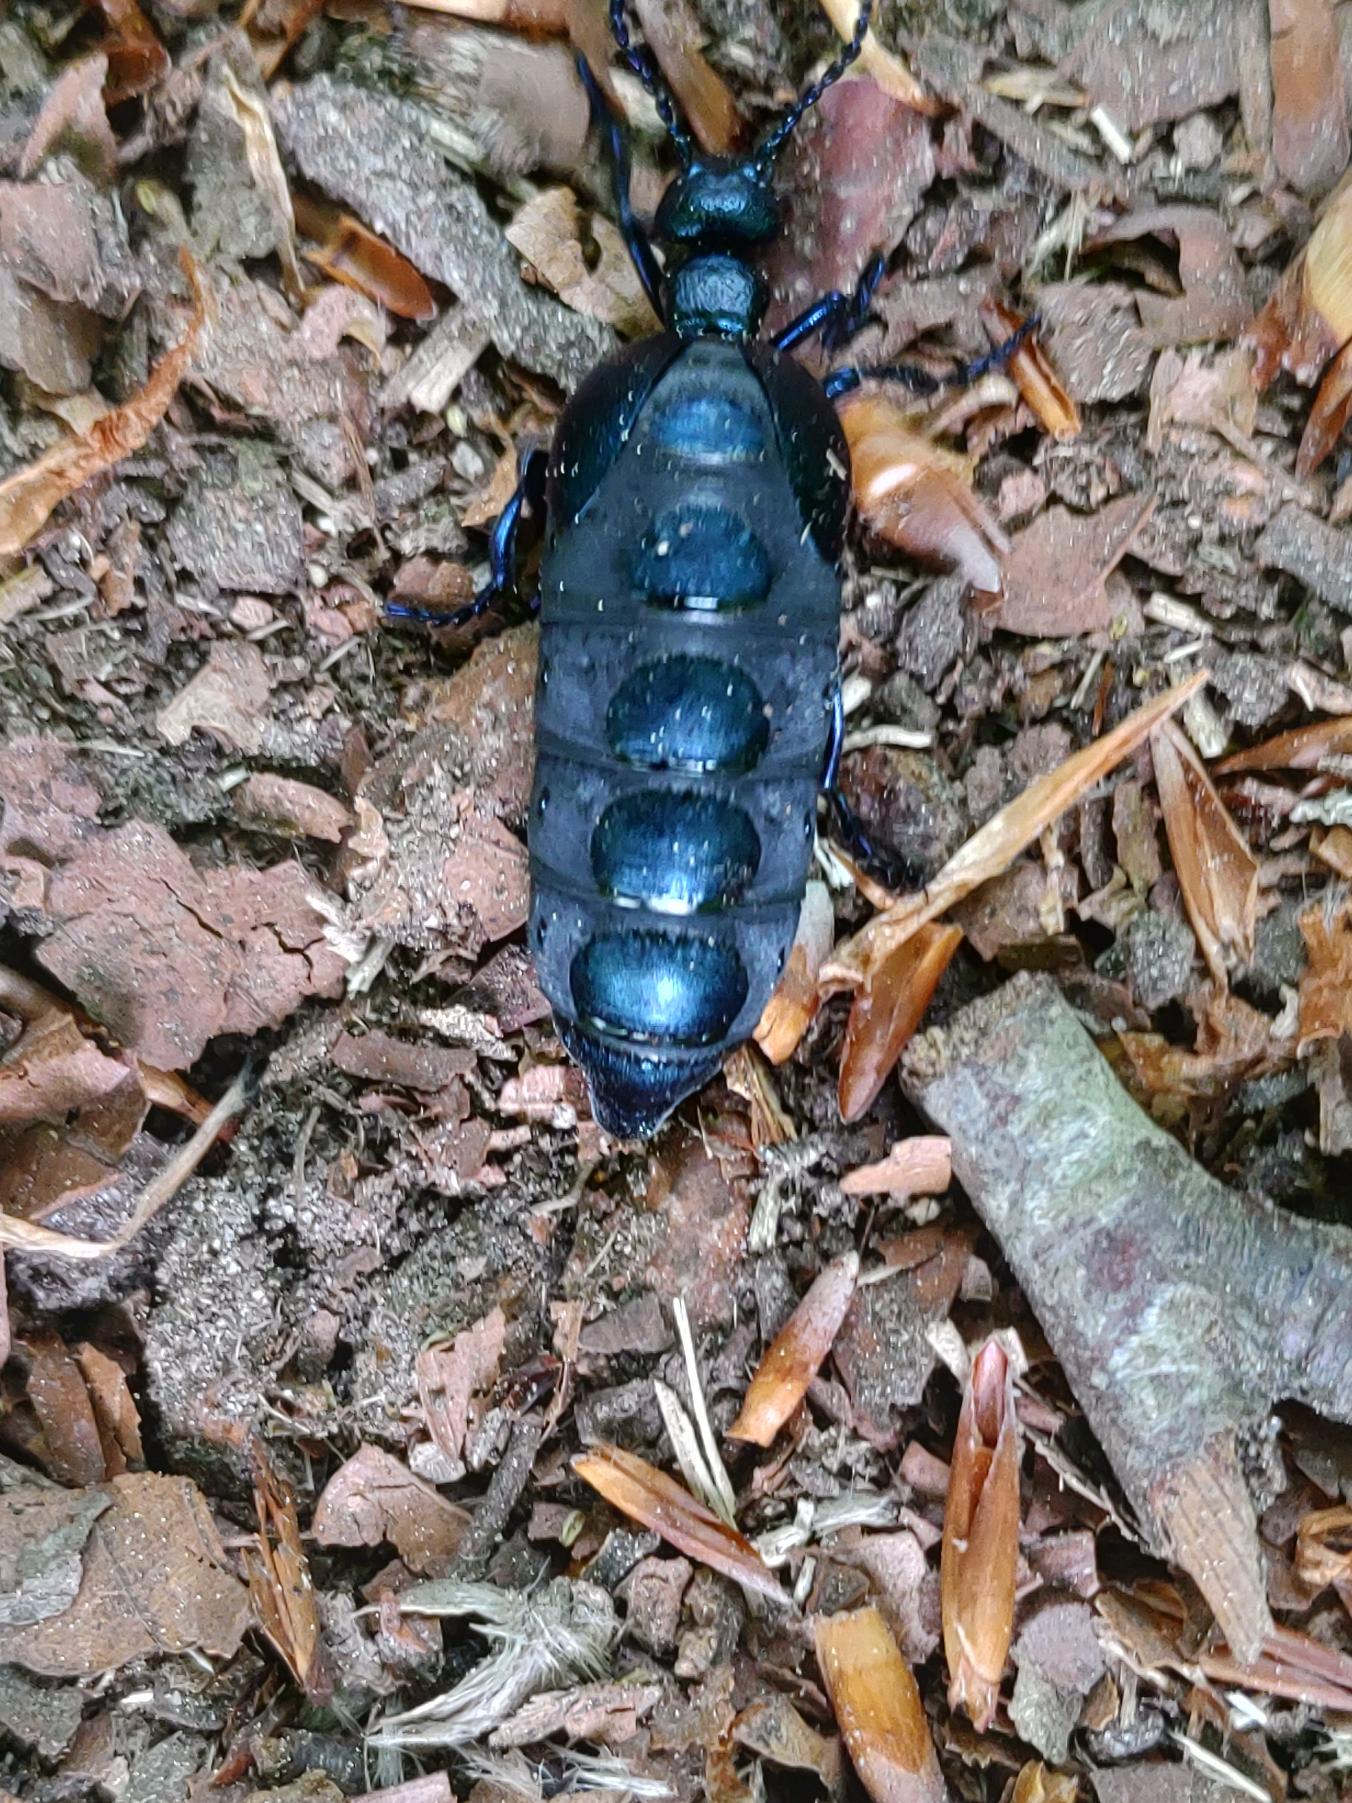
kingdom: Animalia
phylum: Arthropoda
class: Insecta
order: Coleoptera
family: Meloidae
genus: Meloe
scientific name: Meloe violaceus
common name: Blå oliebille
